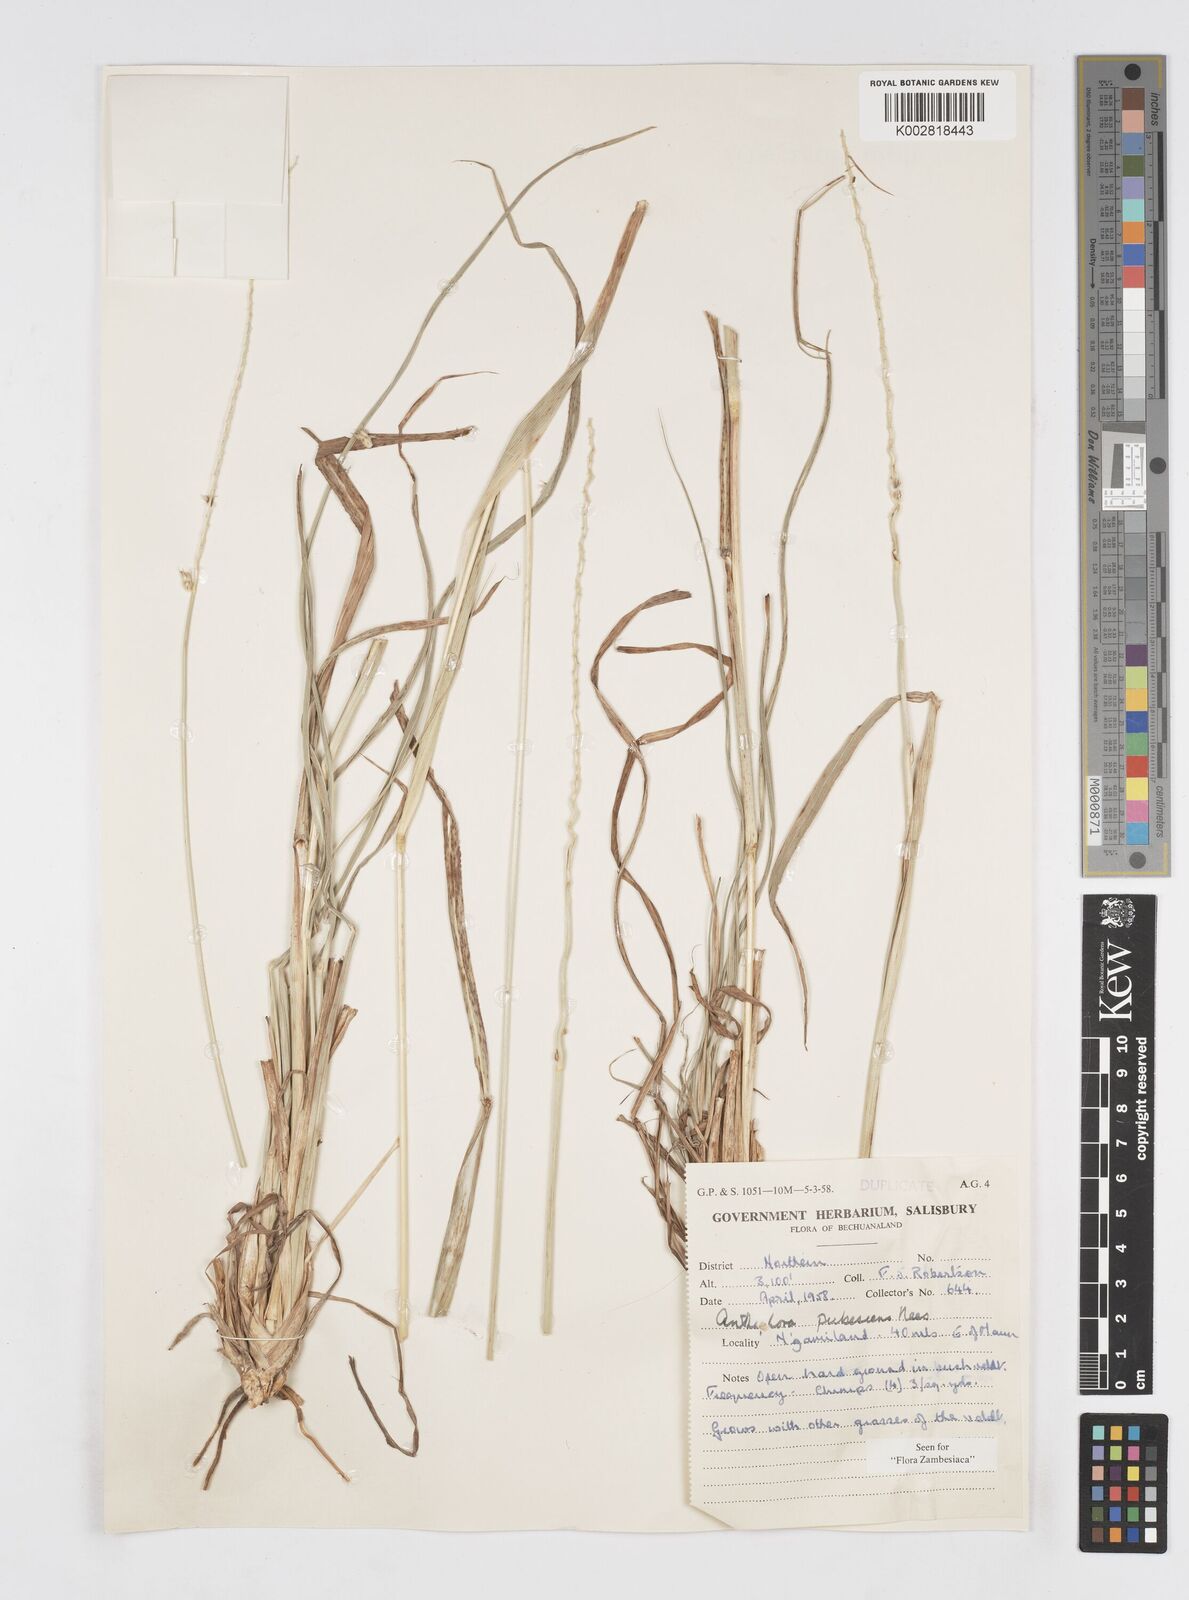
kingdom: Plantae
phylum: Tracheophyta
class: Liliopsida
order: Poales
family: Poaceae
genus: Anthephora
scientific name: Anthephora pubescens
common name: Wool grass
